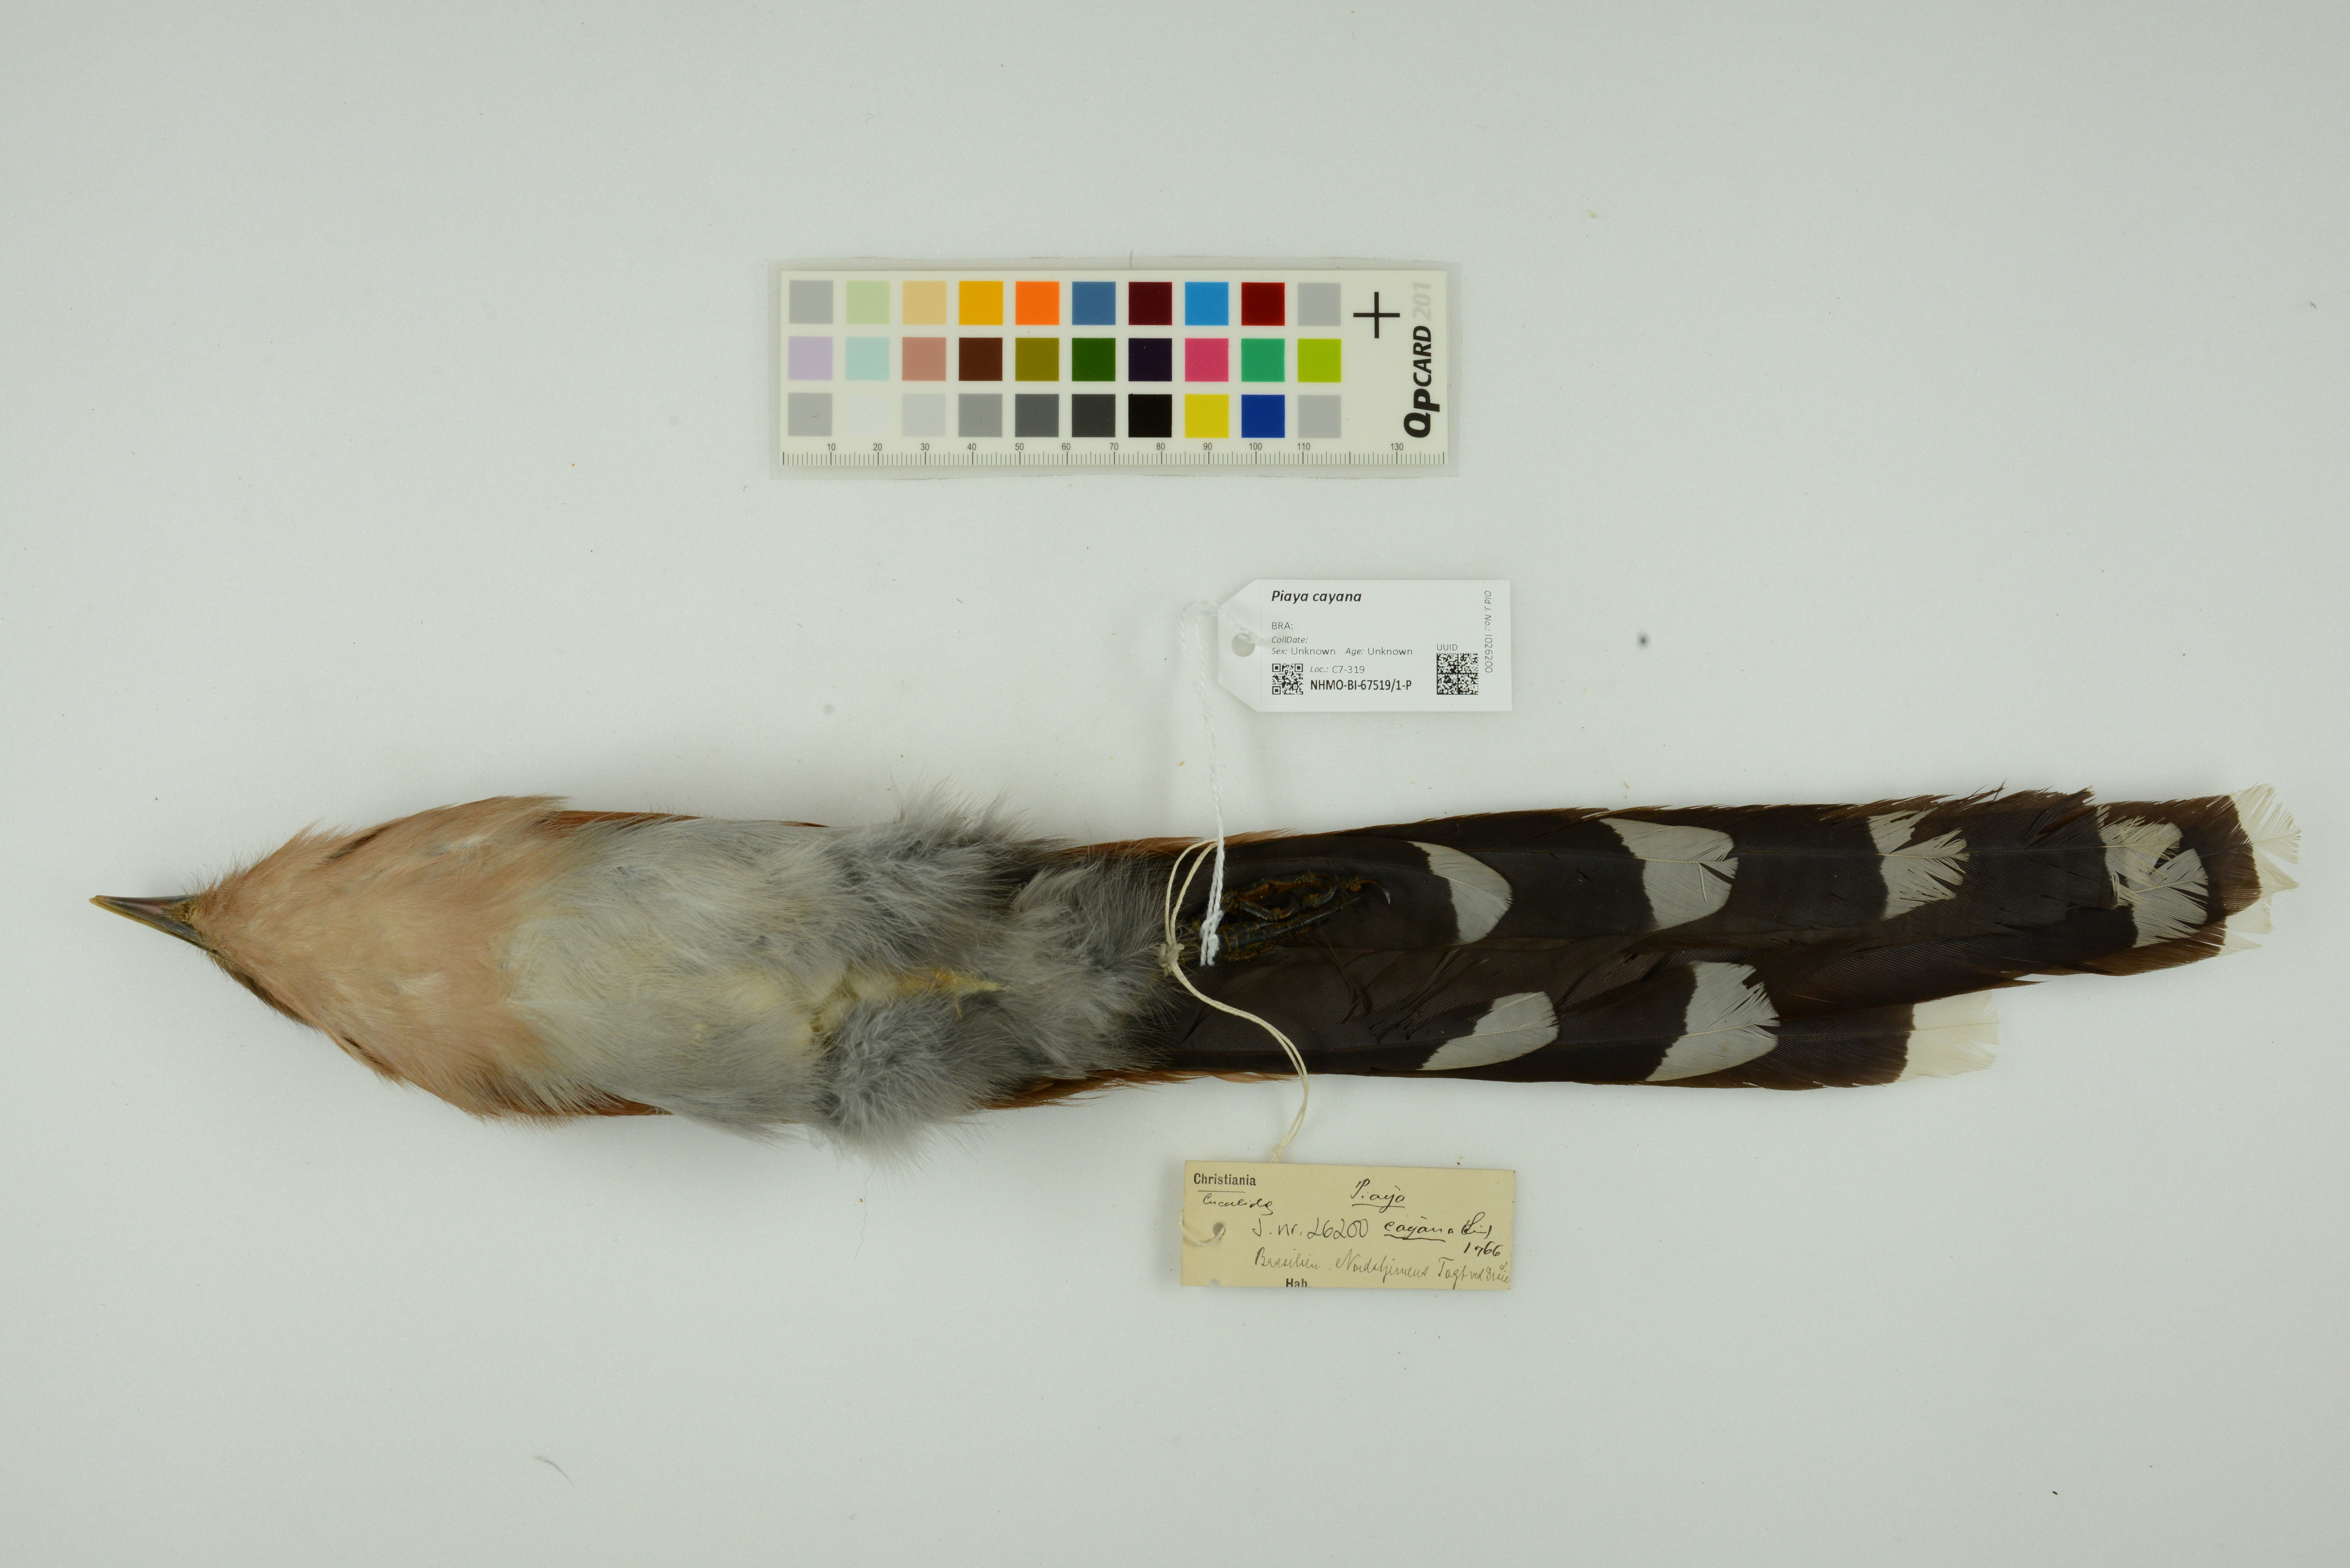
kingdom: Animalia
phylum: Chordata
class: Aves
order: Cuculiformes
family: Cuculidae
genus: Piaya
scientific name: Piaya cayana
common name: Squirrel cuckoo
